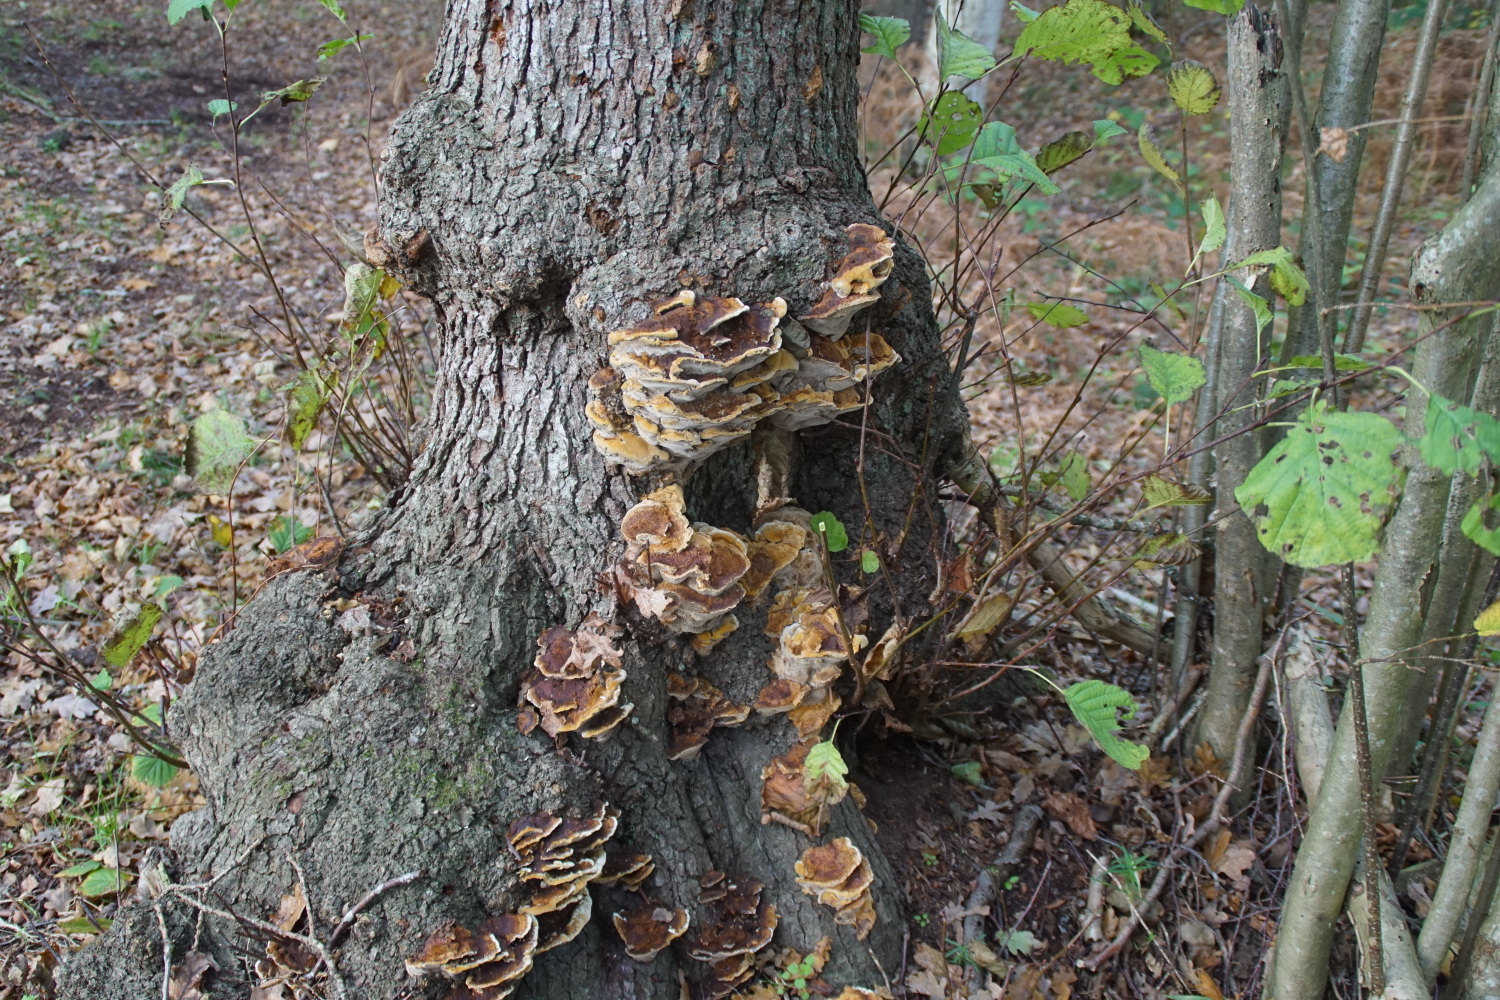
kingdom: Fungi
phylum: Basidiomycota
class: Agaricomycetes
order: Hymenochaetales
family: Hymenochaetaceae
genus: Xanthoporia
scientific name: Xanthoporia radiata
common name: elle-spejlporesvamp
